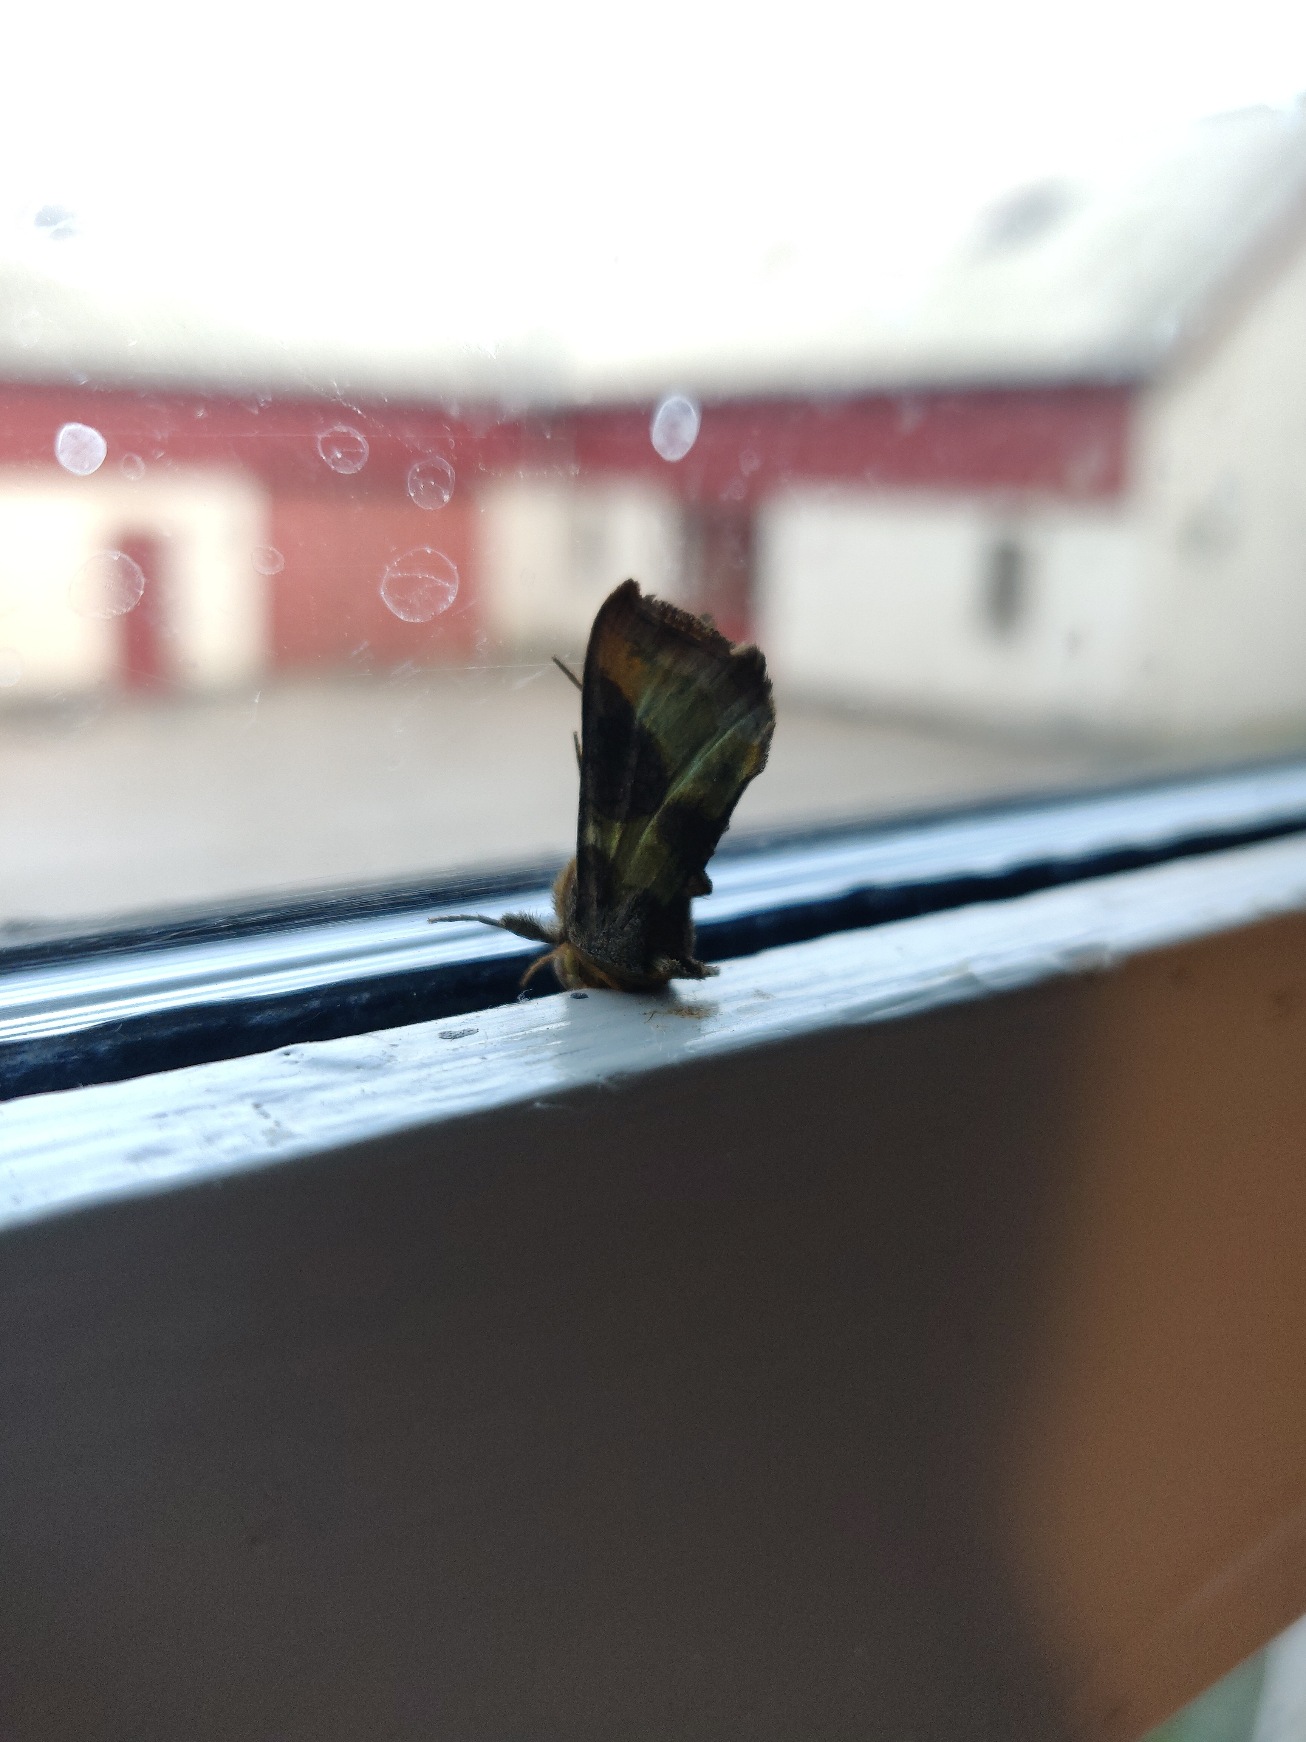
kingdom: Animalia
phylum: Arthropoda
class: Insecta
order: Lepidoptera
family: Noctuidae
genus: Diachrysia
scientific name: Diachrysia chrysitis
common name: Messingugle
